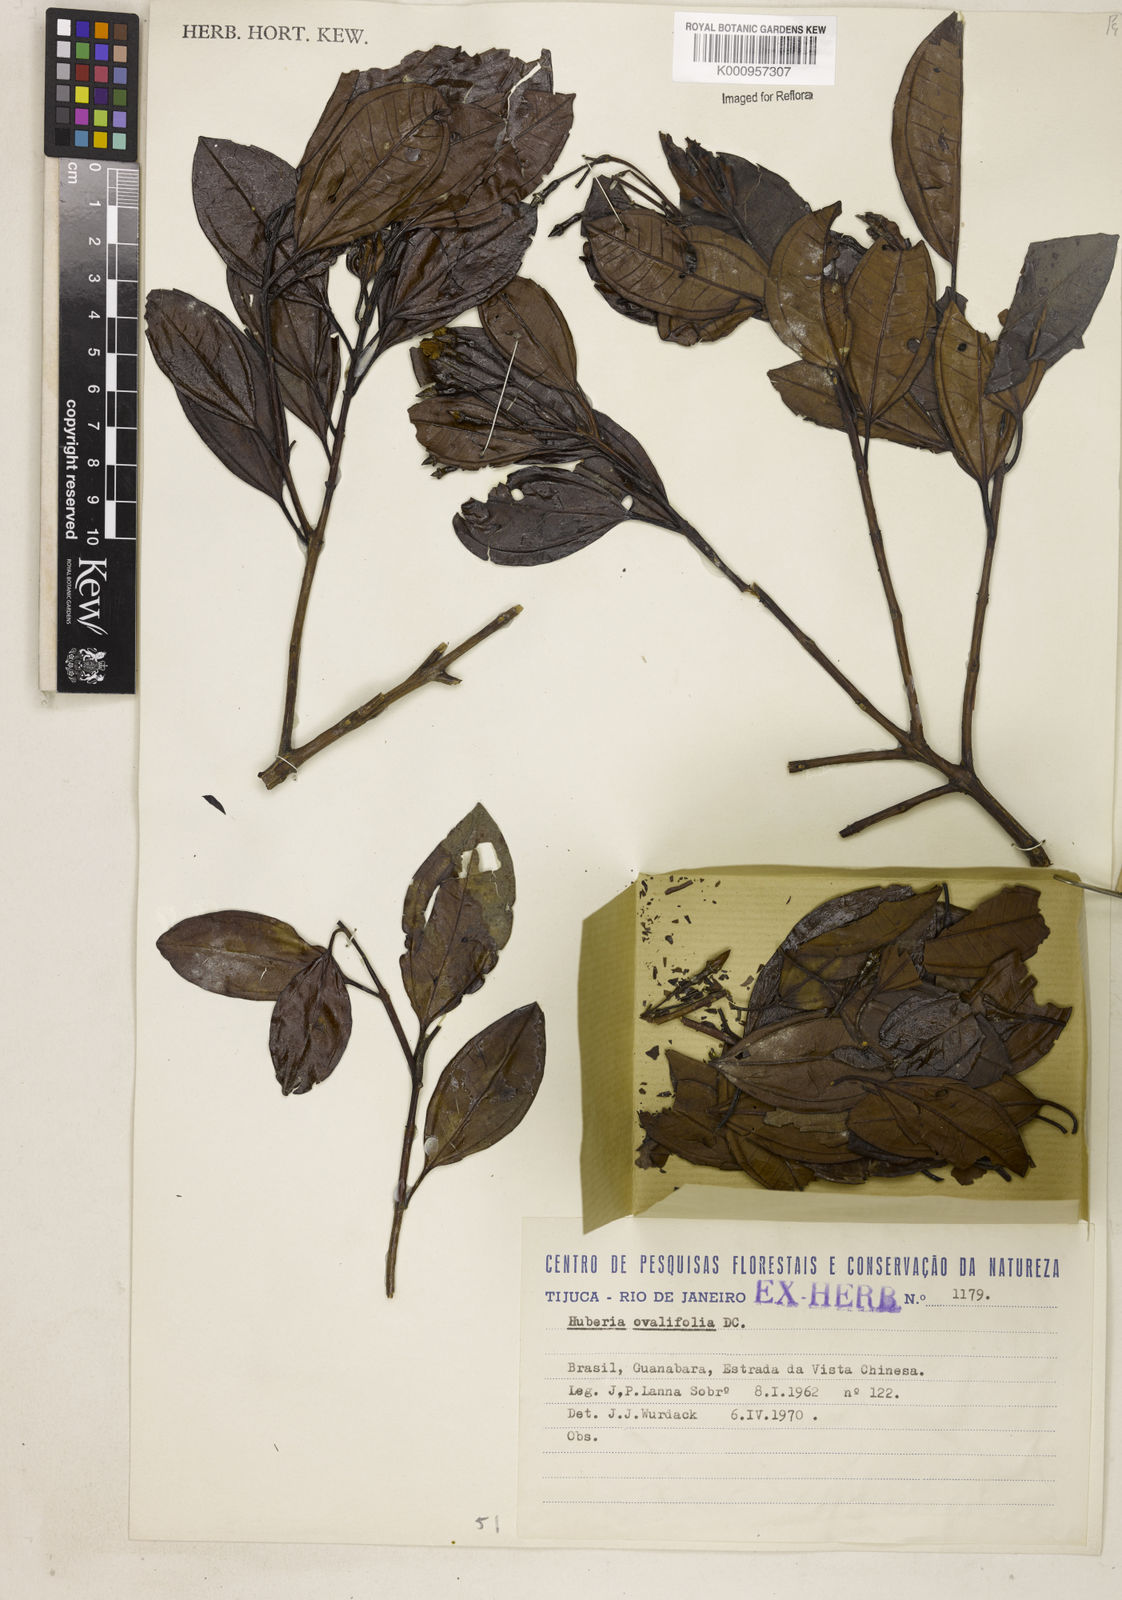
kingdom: Plantae
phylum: Tracheophyta
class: Magnoliopsida
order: Myrtales
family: Melastomataceae
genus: Huberia
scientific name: Huberia ovalifolia
